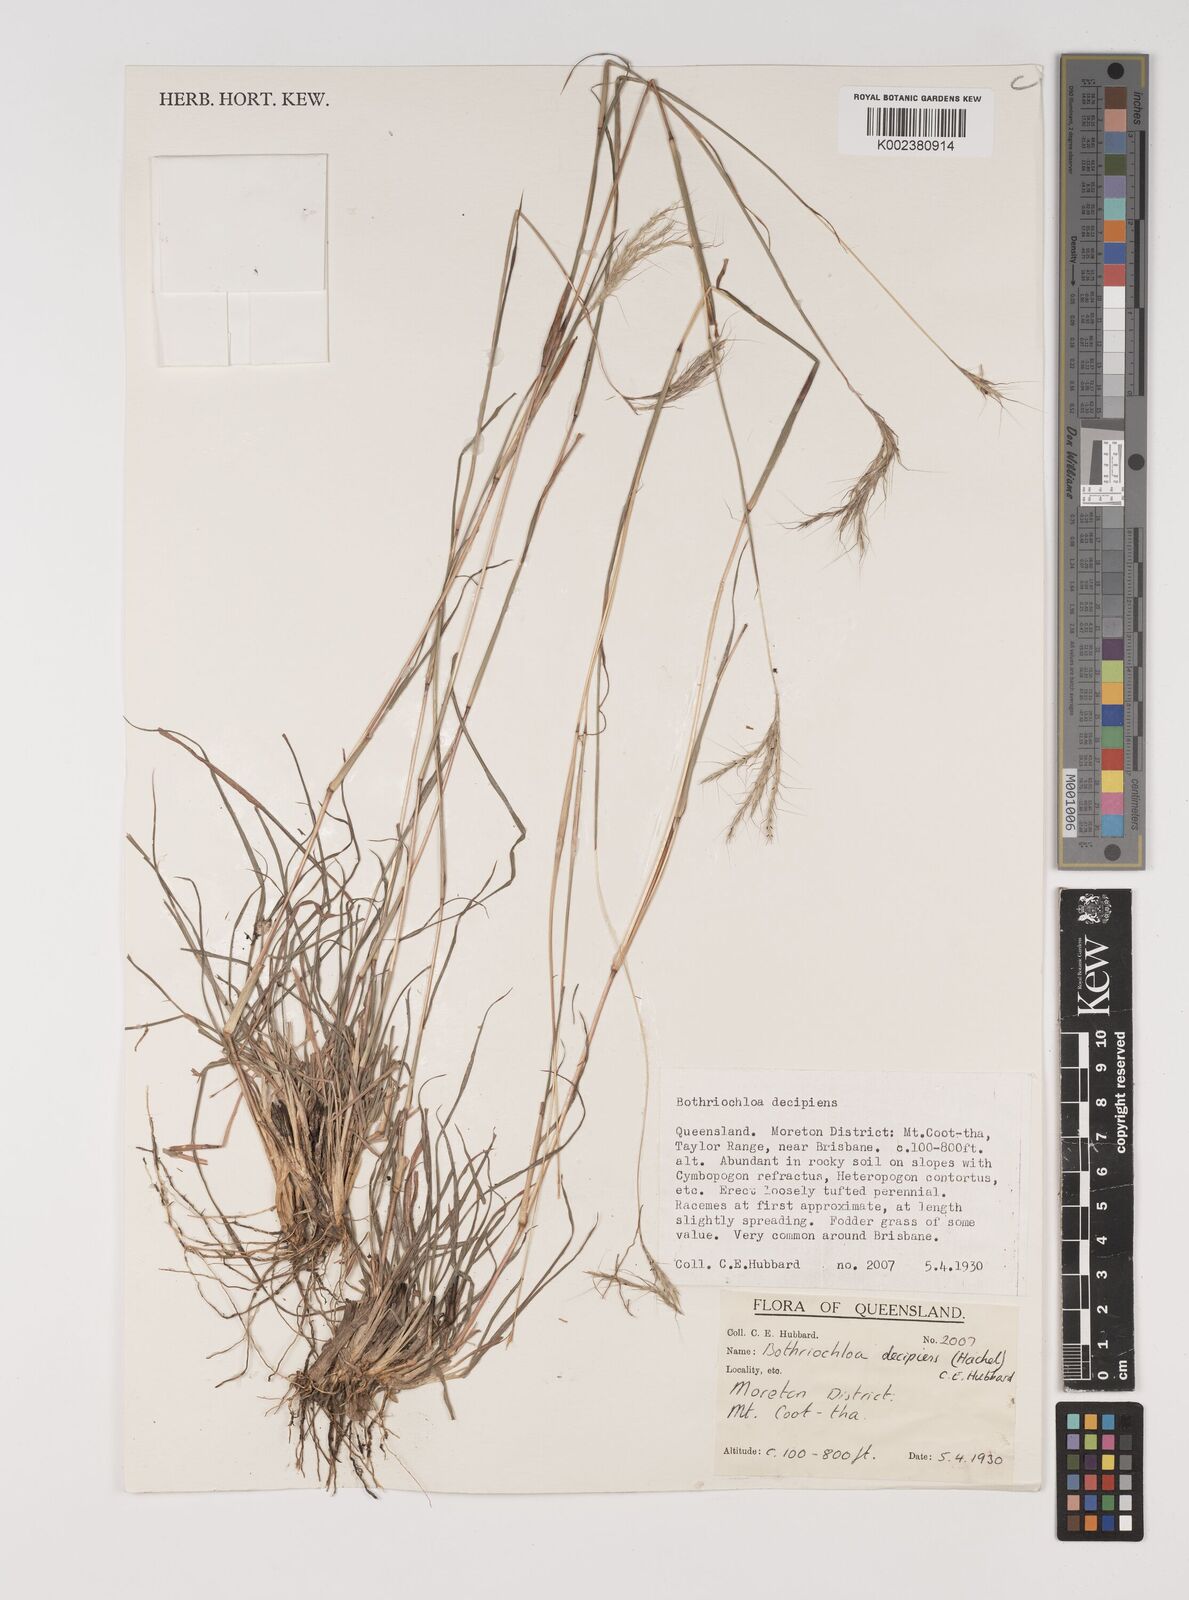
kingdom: Plantae
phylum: Tracheophyta
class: Liliopsida
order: Poales
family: Poaceae
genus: Bothriochloa
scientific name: Bothriochloa decipiens
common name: Pitted-bluegrass
